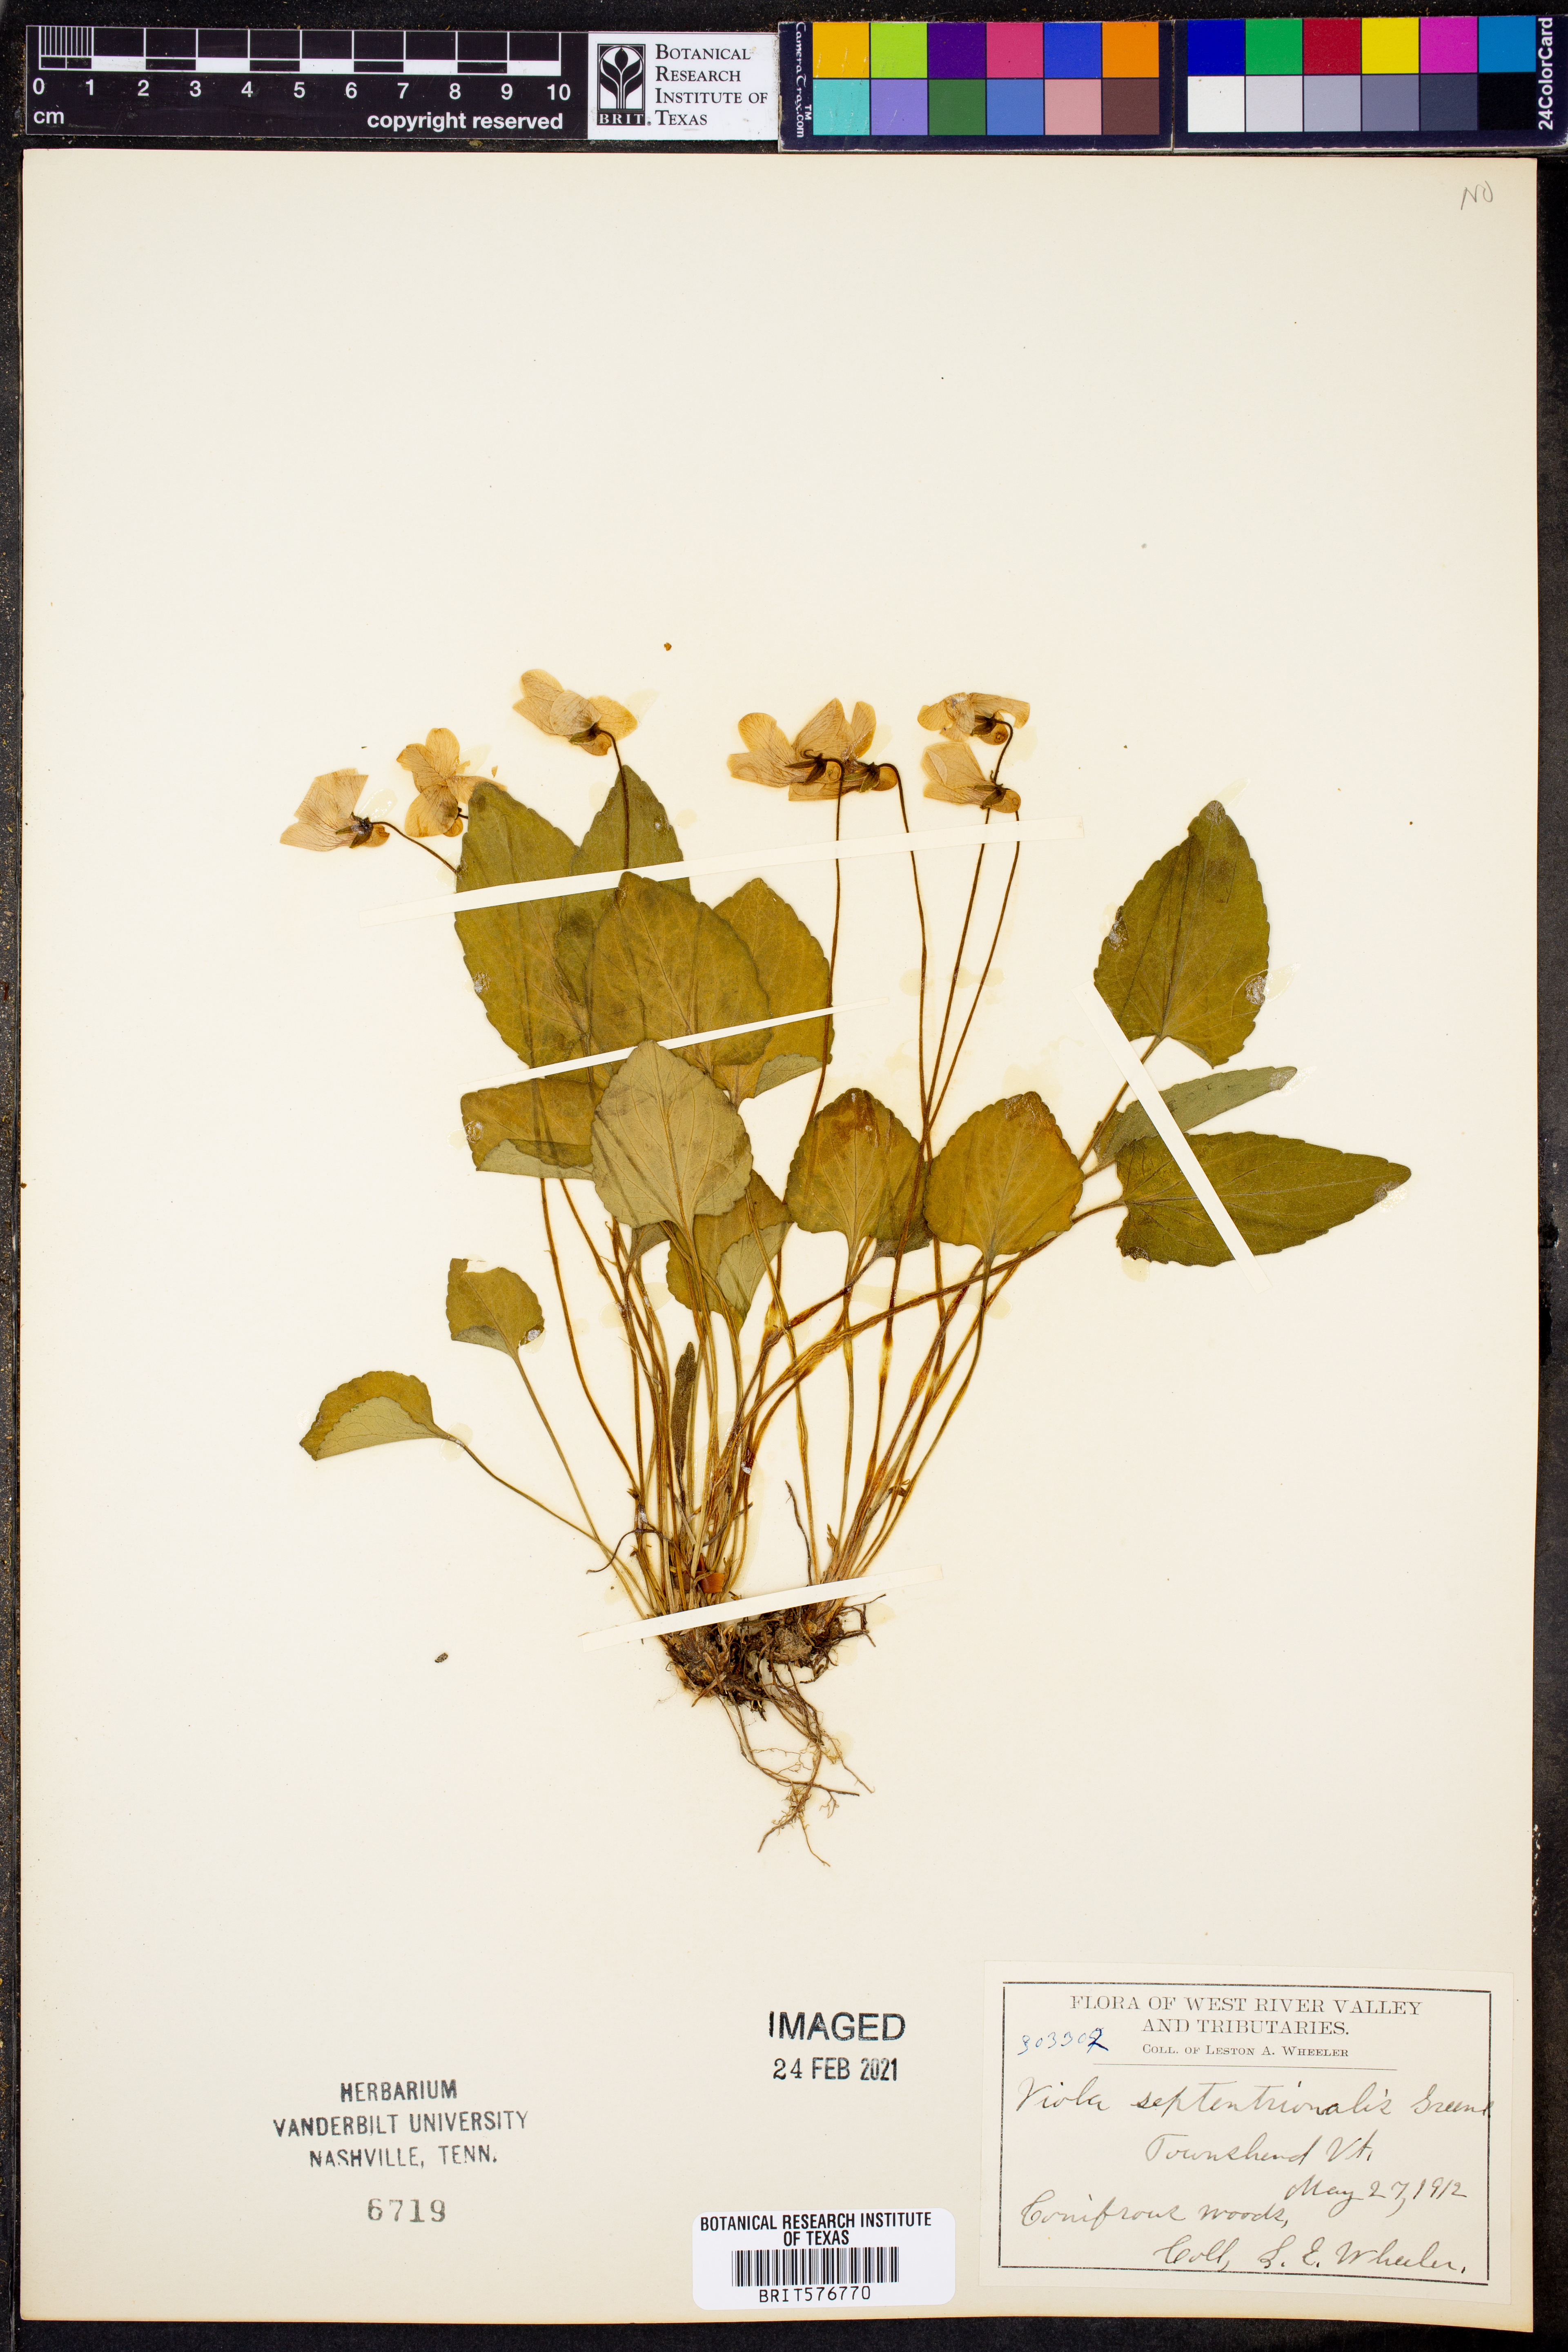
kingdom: Plantae
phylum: Tracheophyta
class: Magnoliopsida
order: Malpighiales
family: Violaceae
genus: Viola
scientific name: Viola septentrionalis
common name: Northern woodland violet
